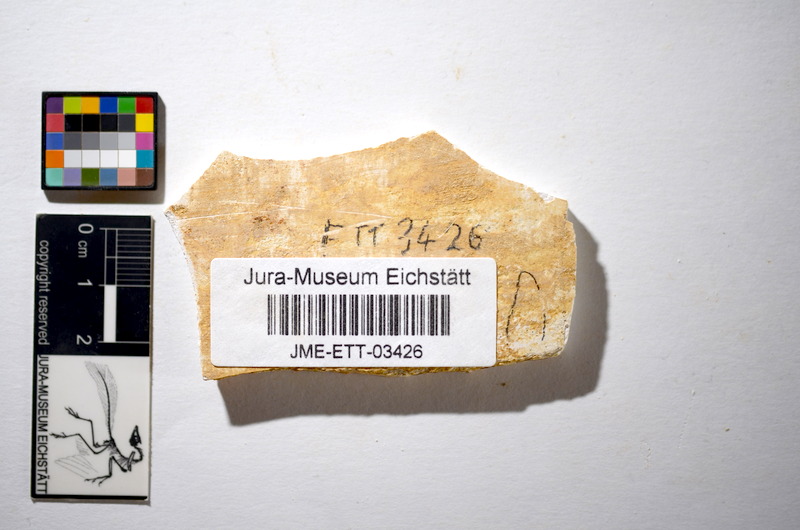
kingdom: Animalia
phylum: Chordata
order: Salmoniformes
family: Orthogonikleithridae
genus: Orthogonikleithrus
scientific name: Orthogonikleithrus hoelli
